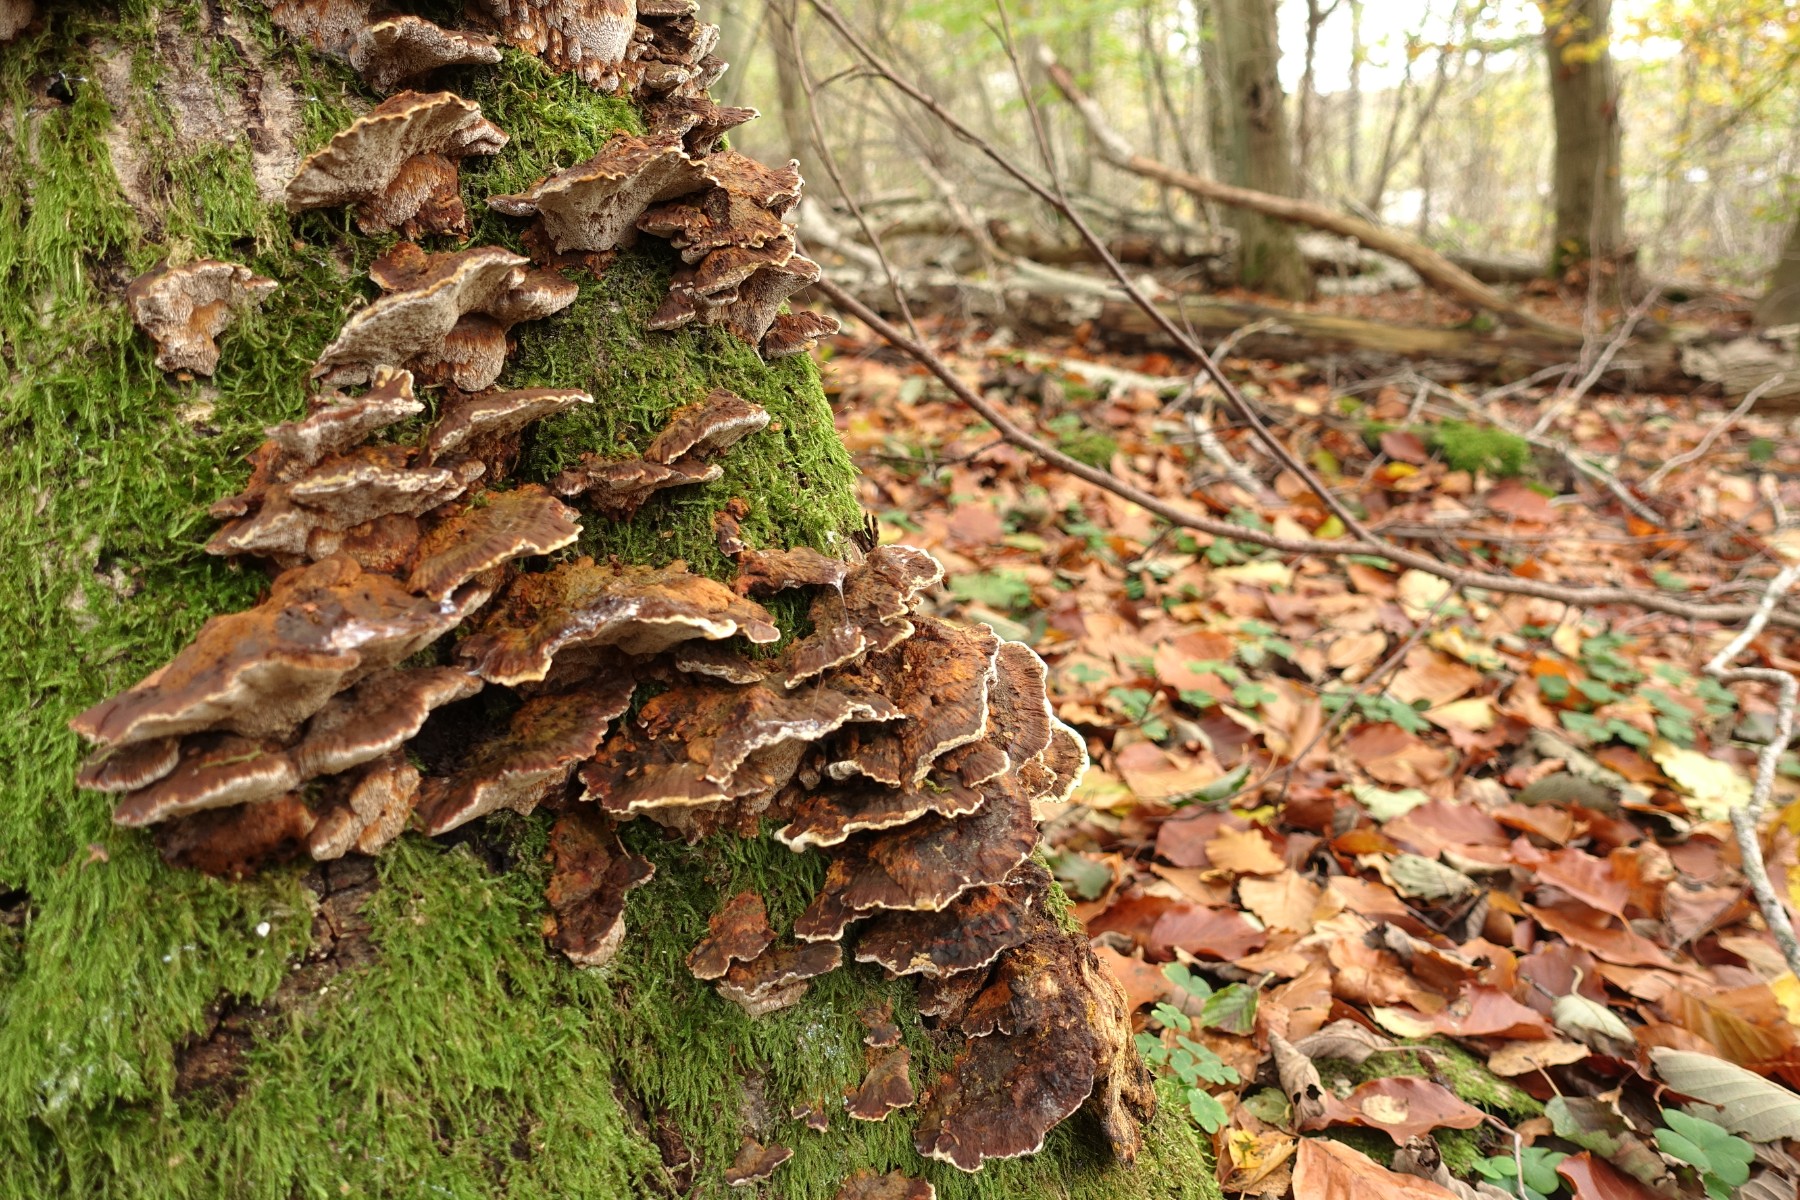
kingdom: Fungi
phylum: Basidiomycota
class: Agaricomycetes
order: Hymenochaetales
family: Hymenochaetaceae
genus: Xanthoporia
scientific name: Xanthoporia radiata
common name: elle-spejlporesvamp
